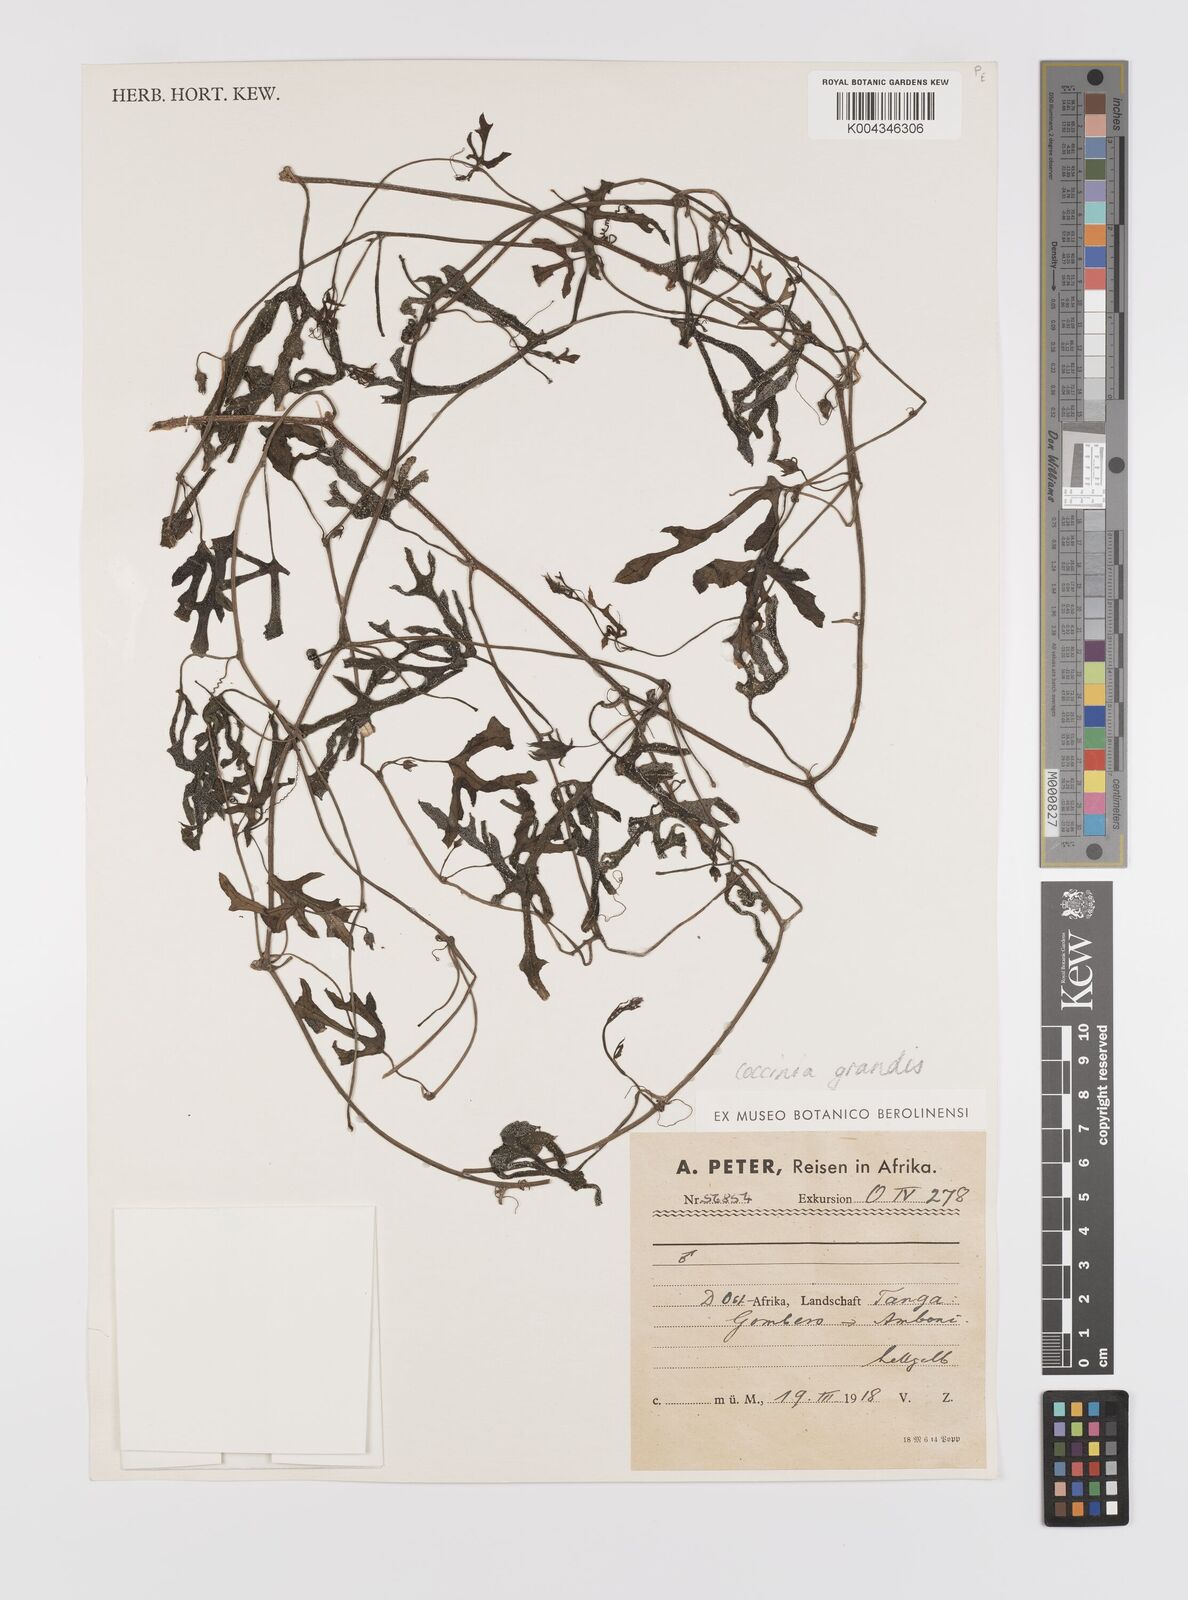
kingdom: Plantae
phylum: Tracheophyta
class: Magnoliopsida
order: Cucurbitales
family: Cucurbitaceae
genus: Coccinia
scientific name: Coccinia grandis
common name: Ivy gourd
